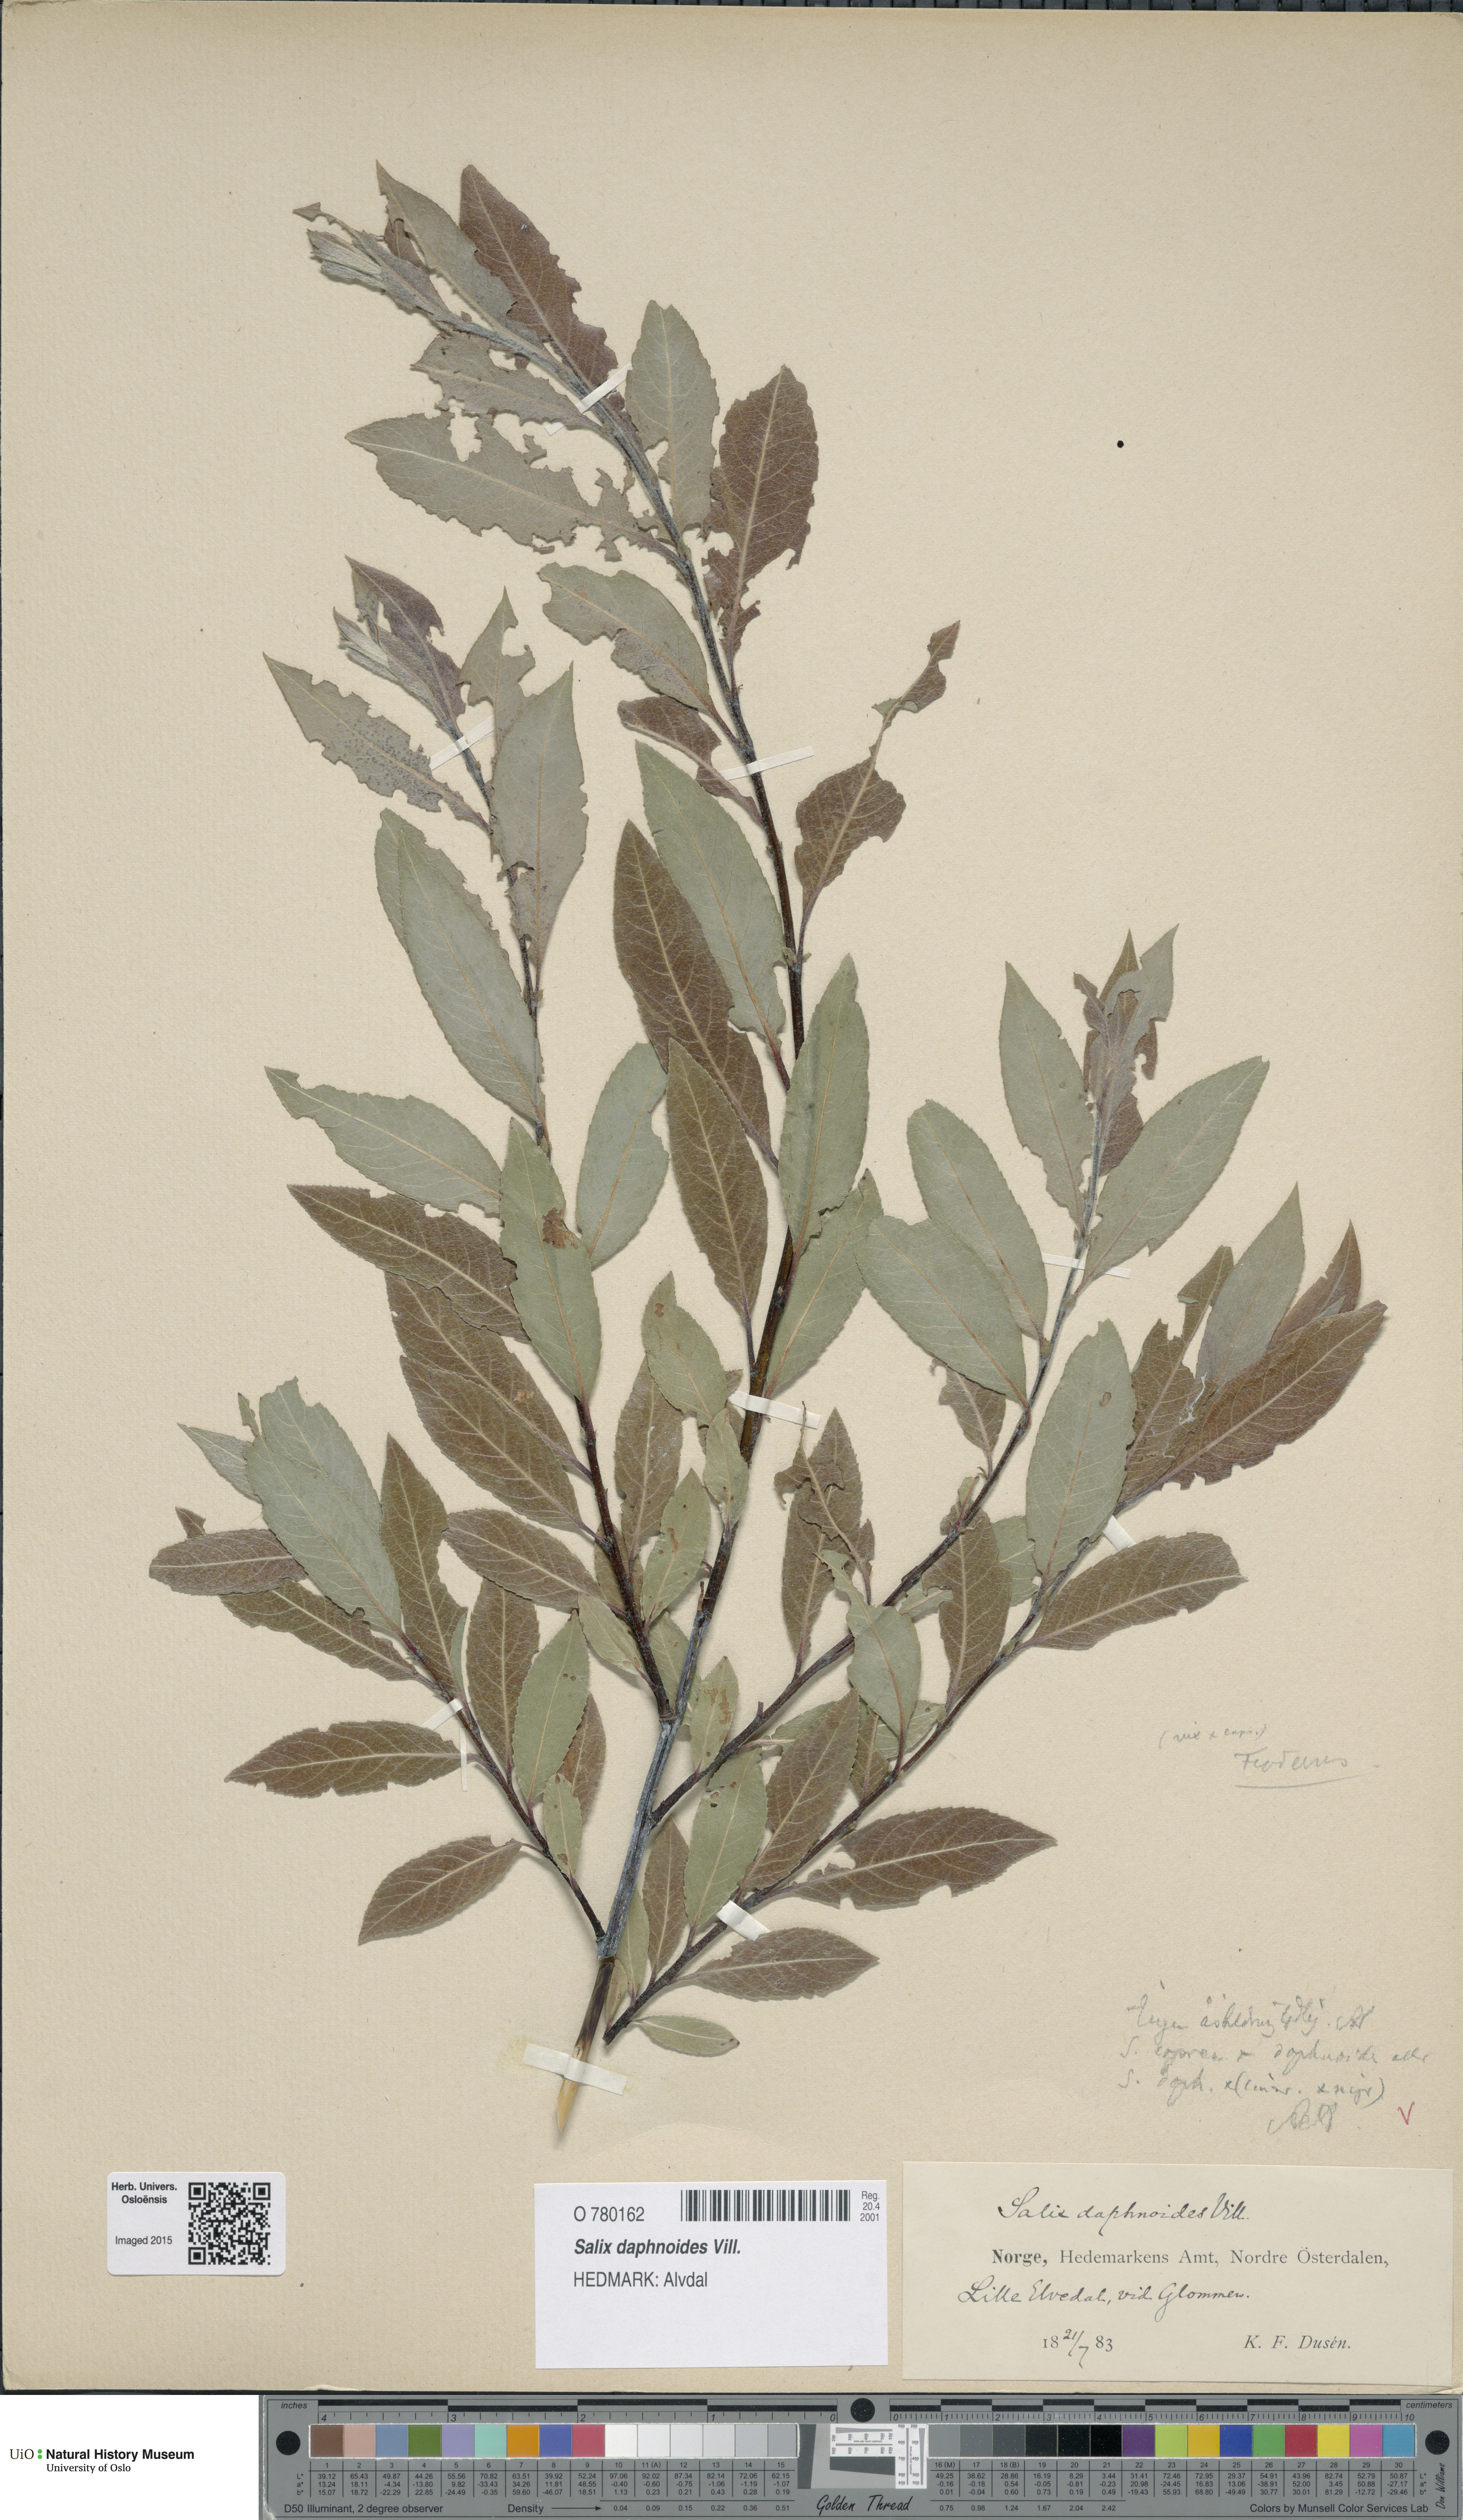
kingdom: Plantae
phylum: Tracheophyta
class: Magnoliopsida
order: Malpighiales
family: Salicaceae
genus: Salix
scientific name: Salix daphnoides
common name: European violet-willow
